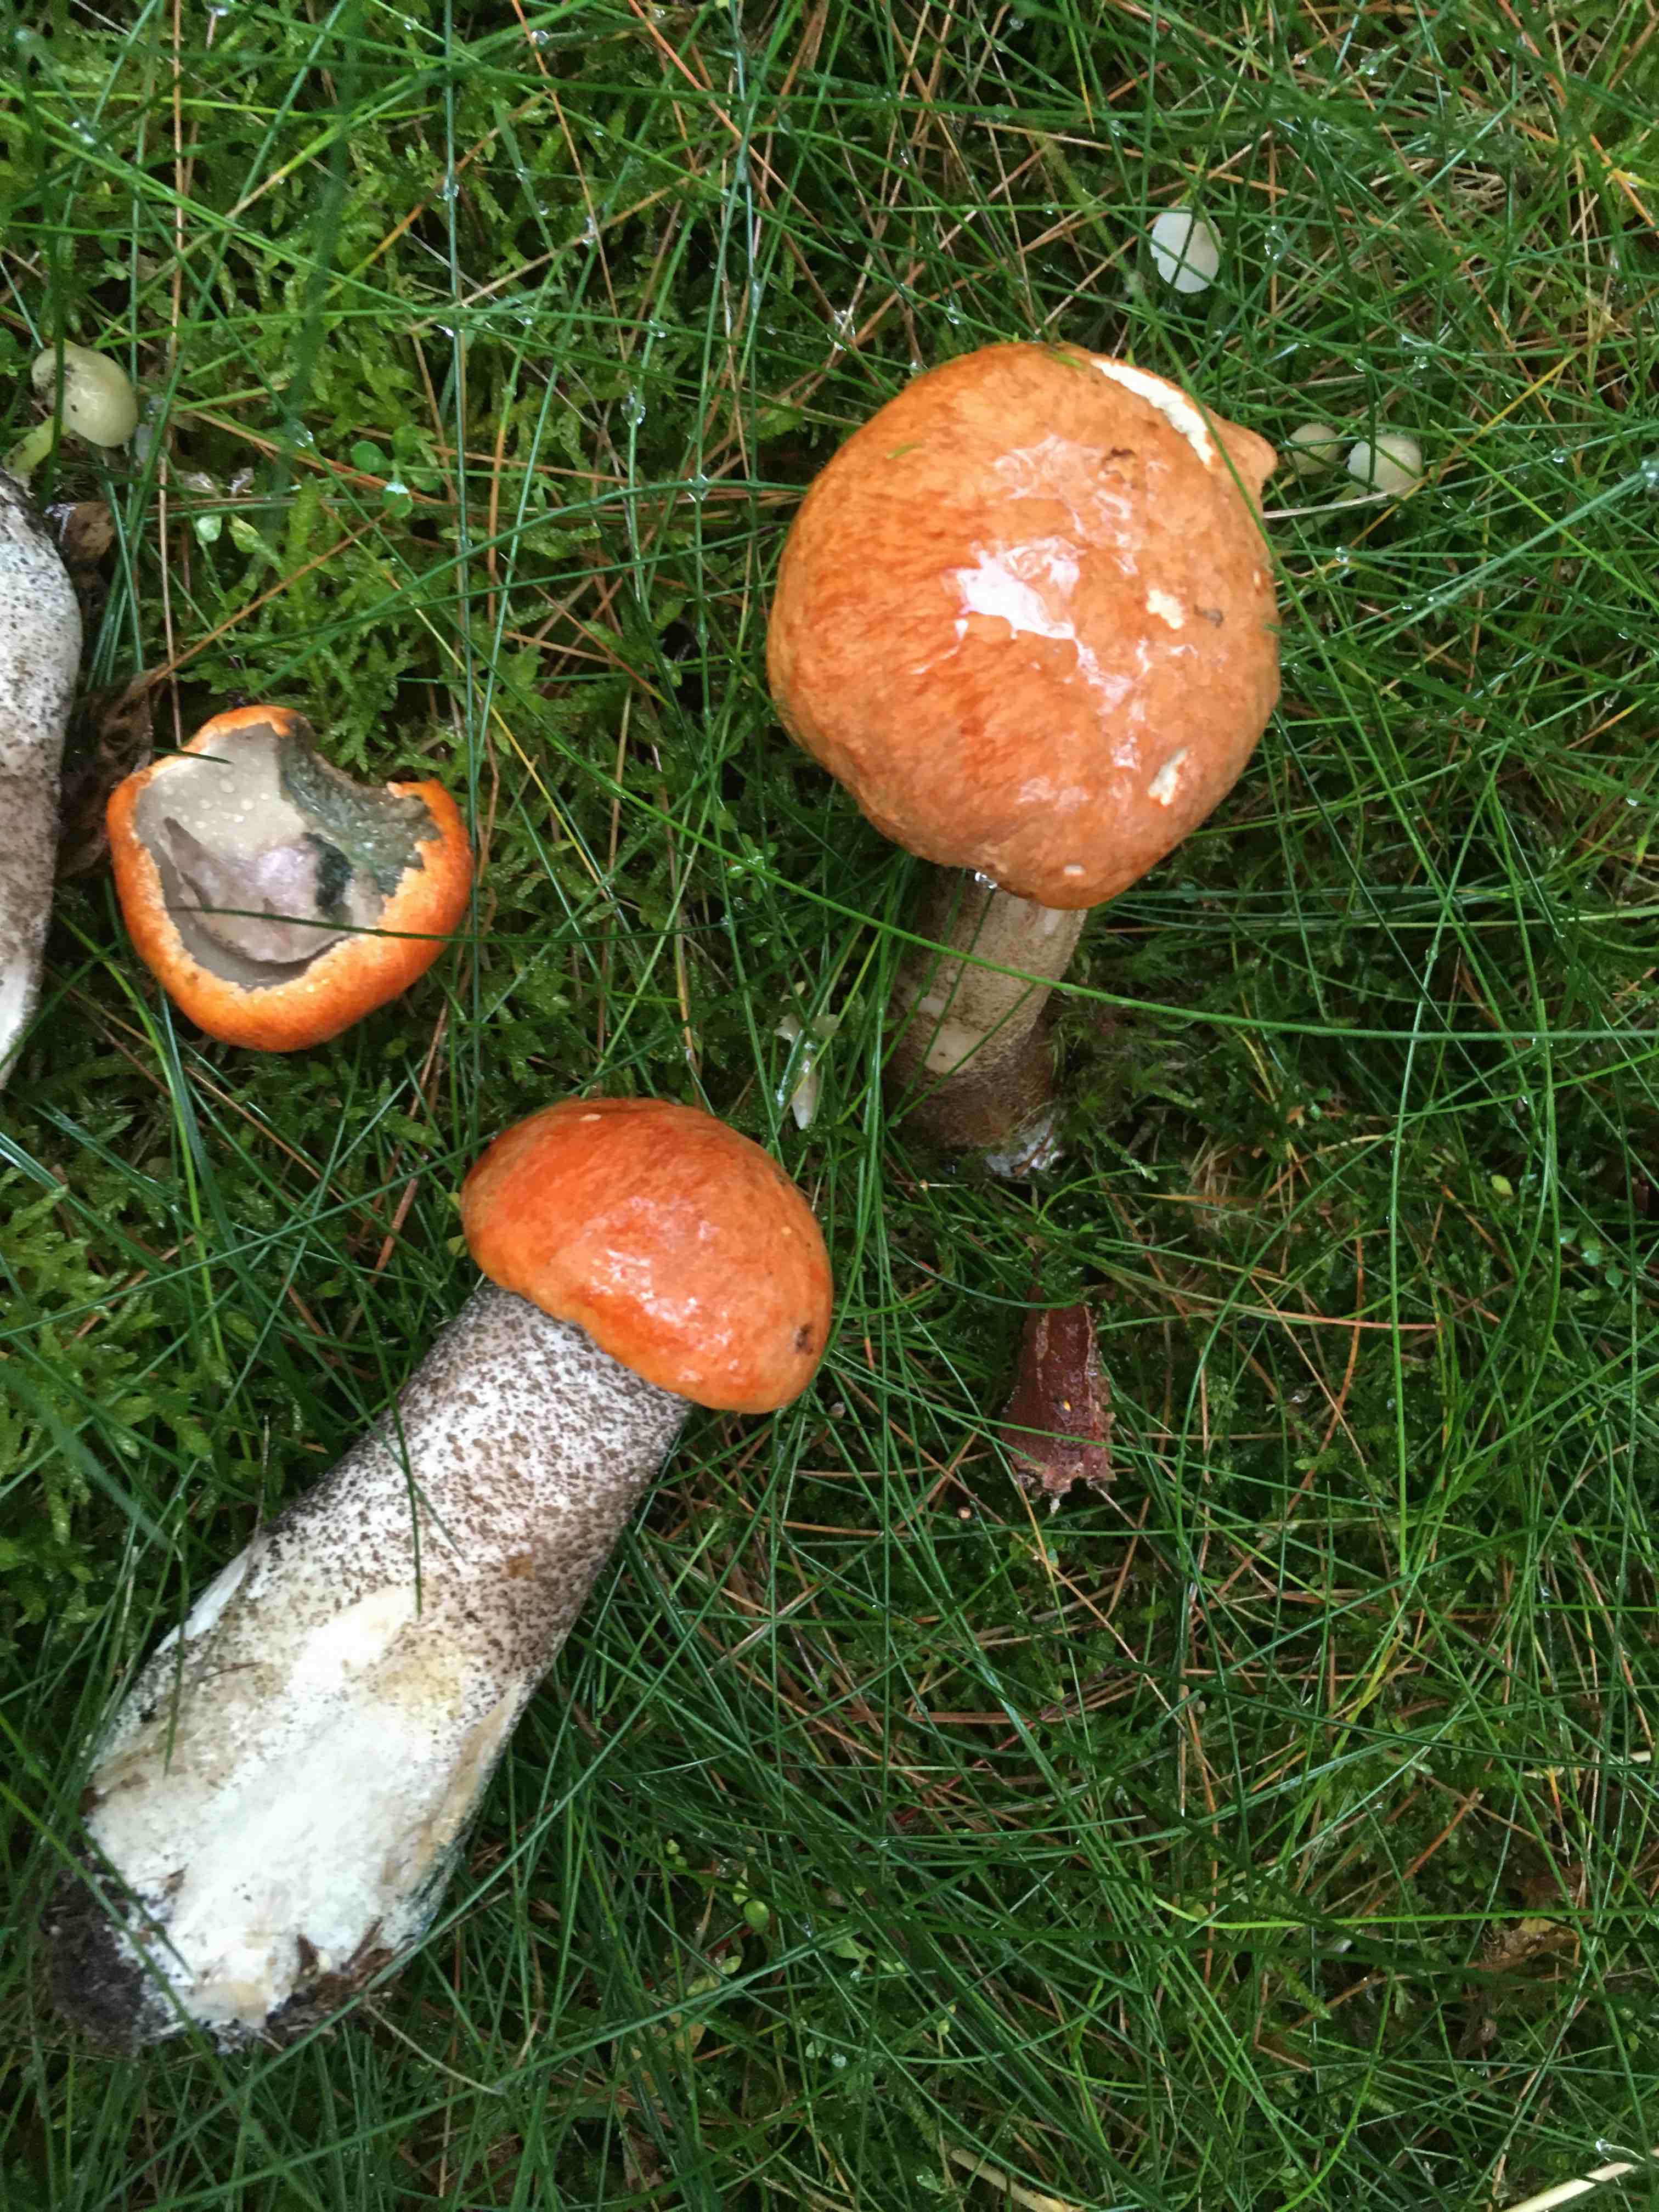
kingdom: Fungi
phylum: Basidiomycota
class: Agaricomycetes
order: Boletales
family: Boletaceae
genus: Leccinum
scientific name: Leccinum versipelle
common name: orange skælrørhat
